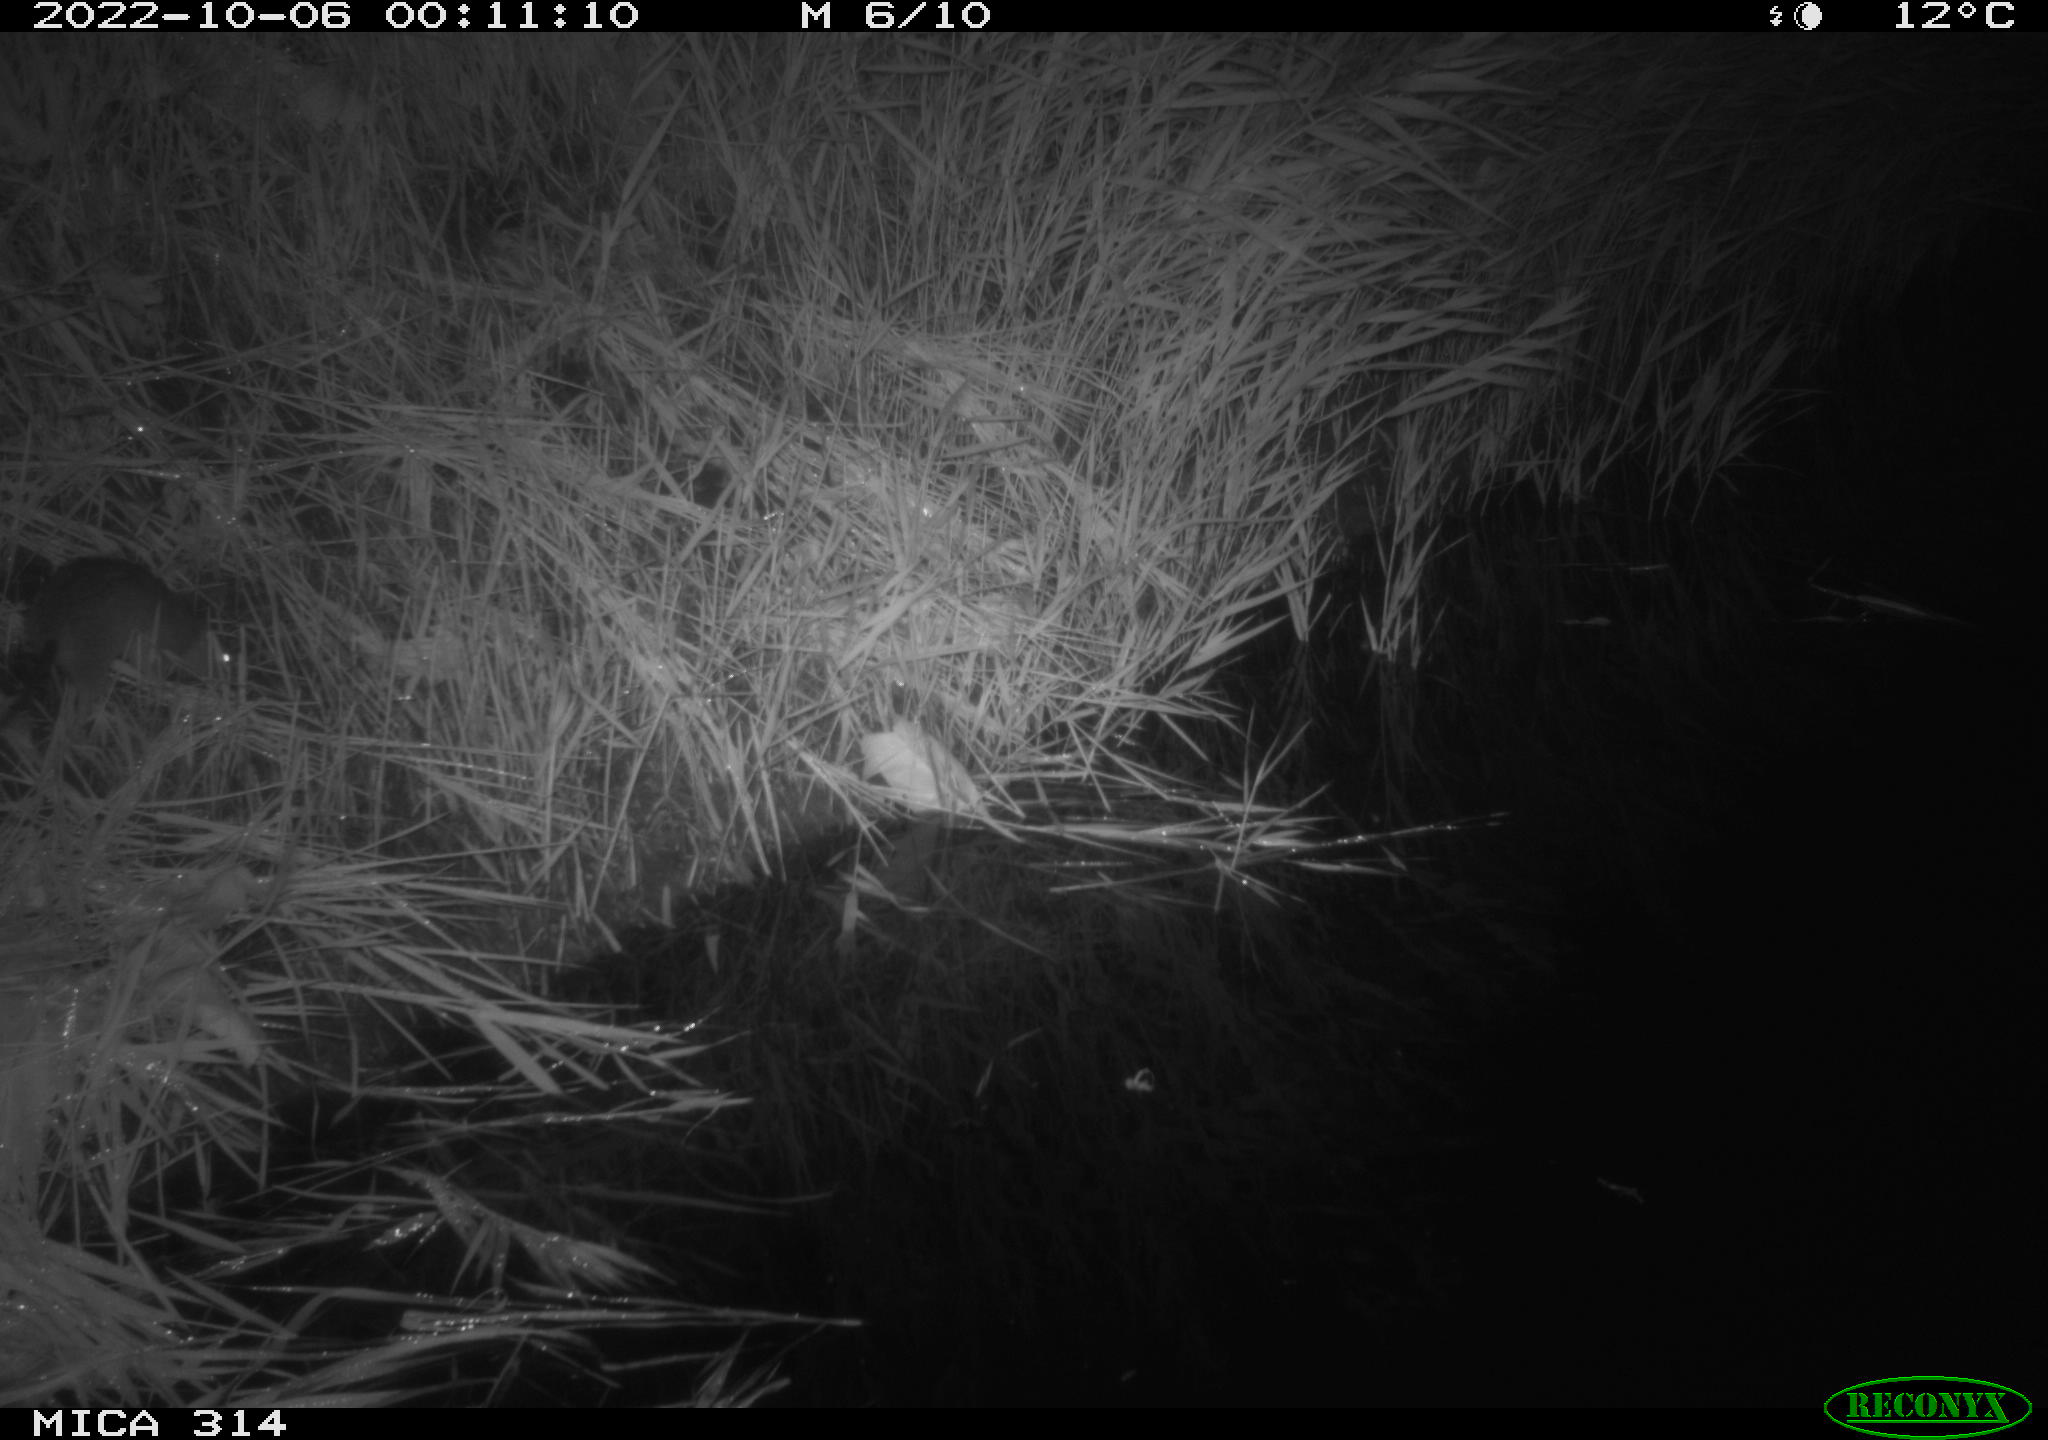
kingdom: Animalia
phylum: Chordata
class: Mammalia
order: Rodentia
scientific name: Rodentia
